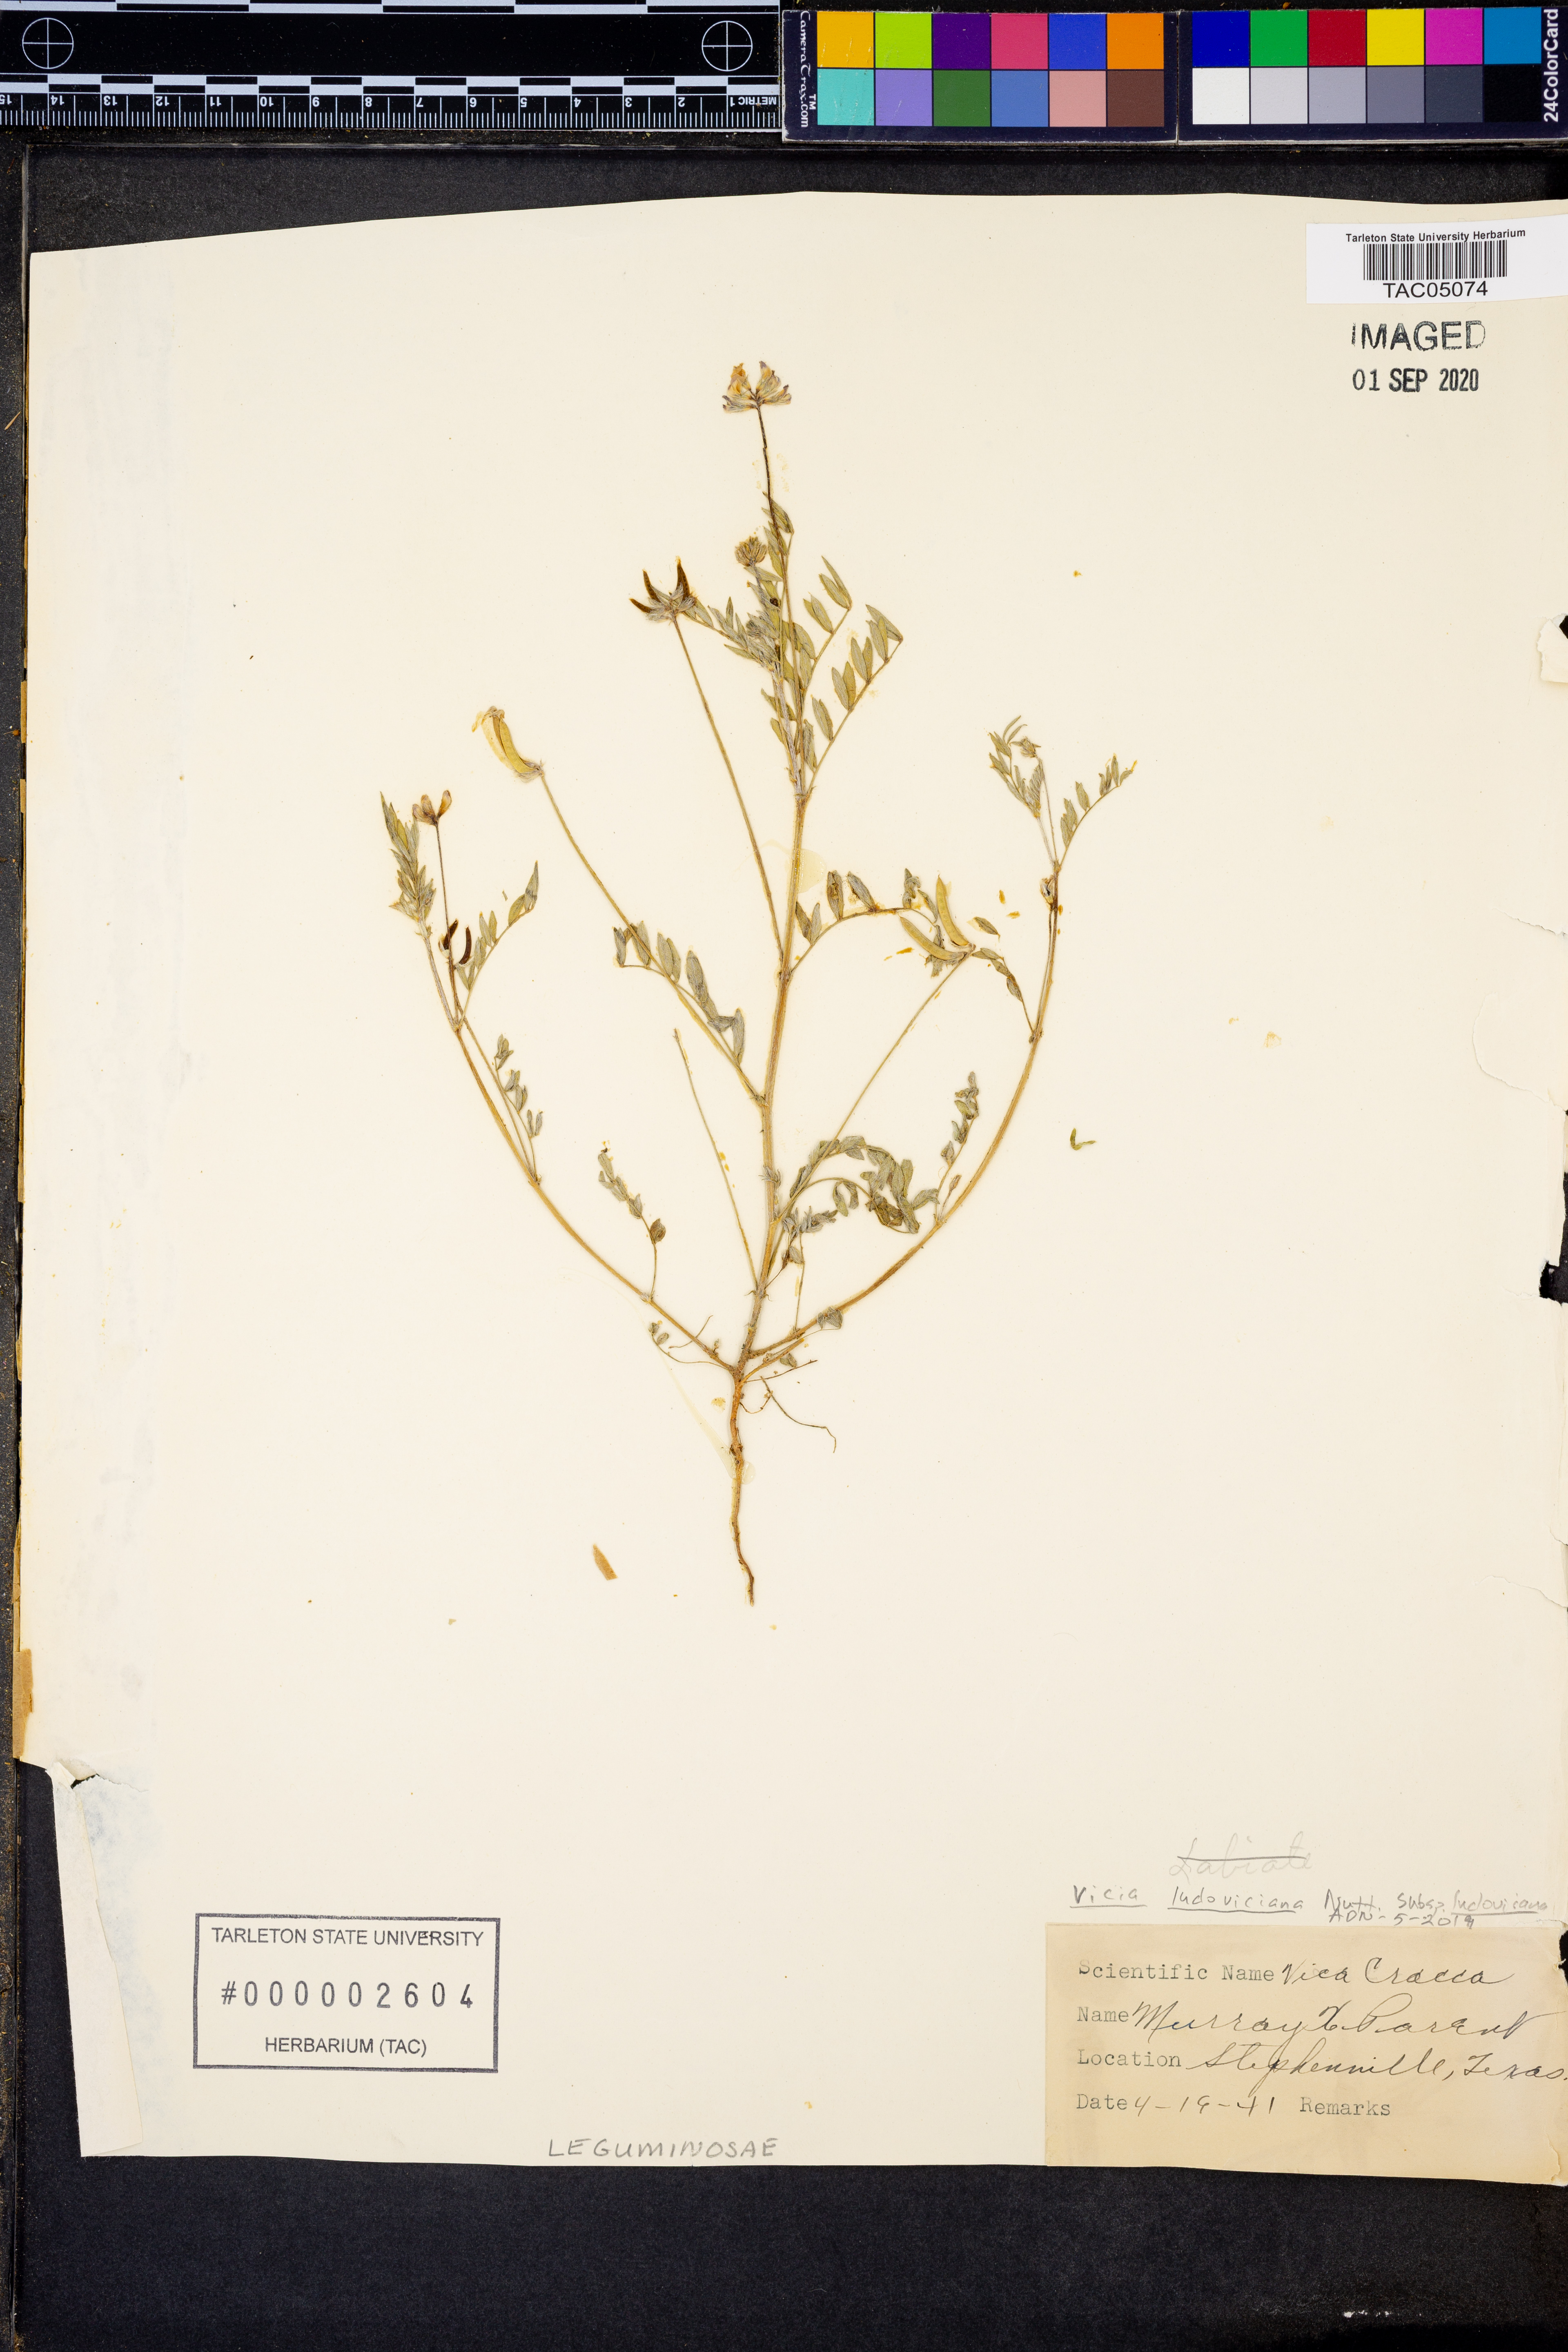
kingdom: Plantae
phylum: Tracheophyta
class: Magnoliopsida
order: Fabales
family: Fabaceae
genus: Vicia
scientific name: Vicia ludoviciana
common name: Louisiana vetch
